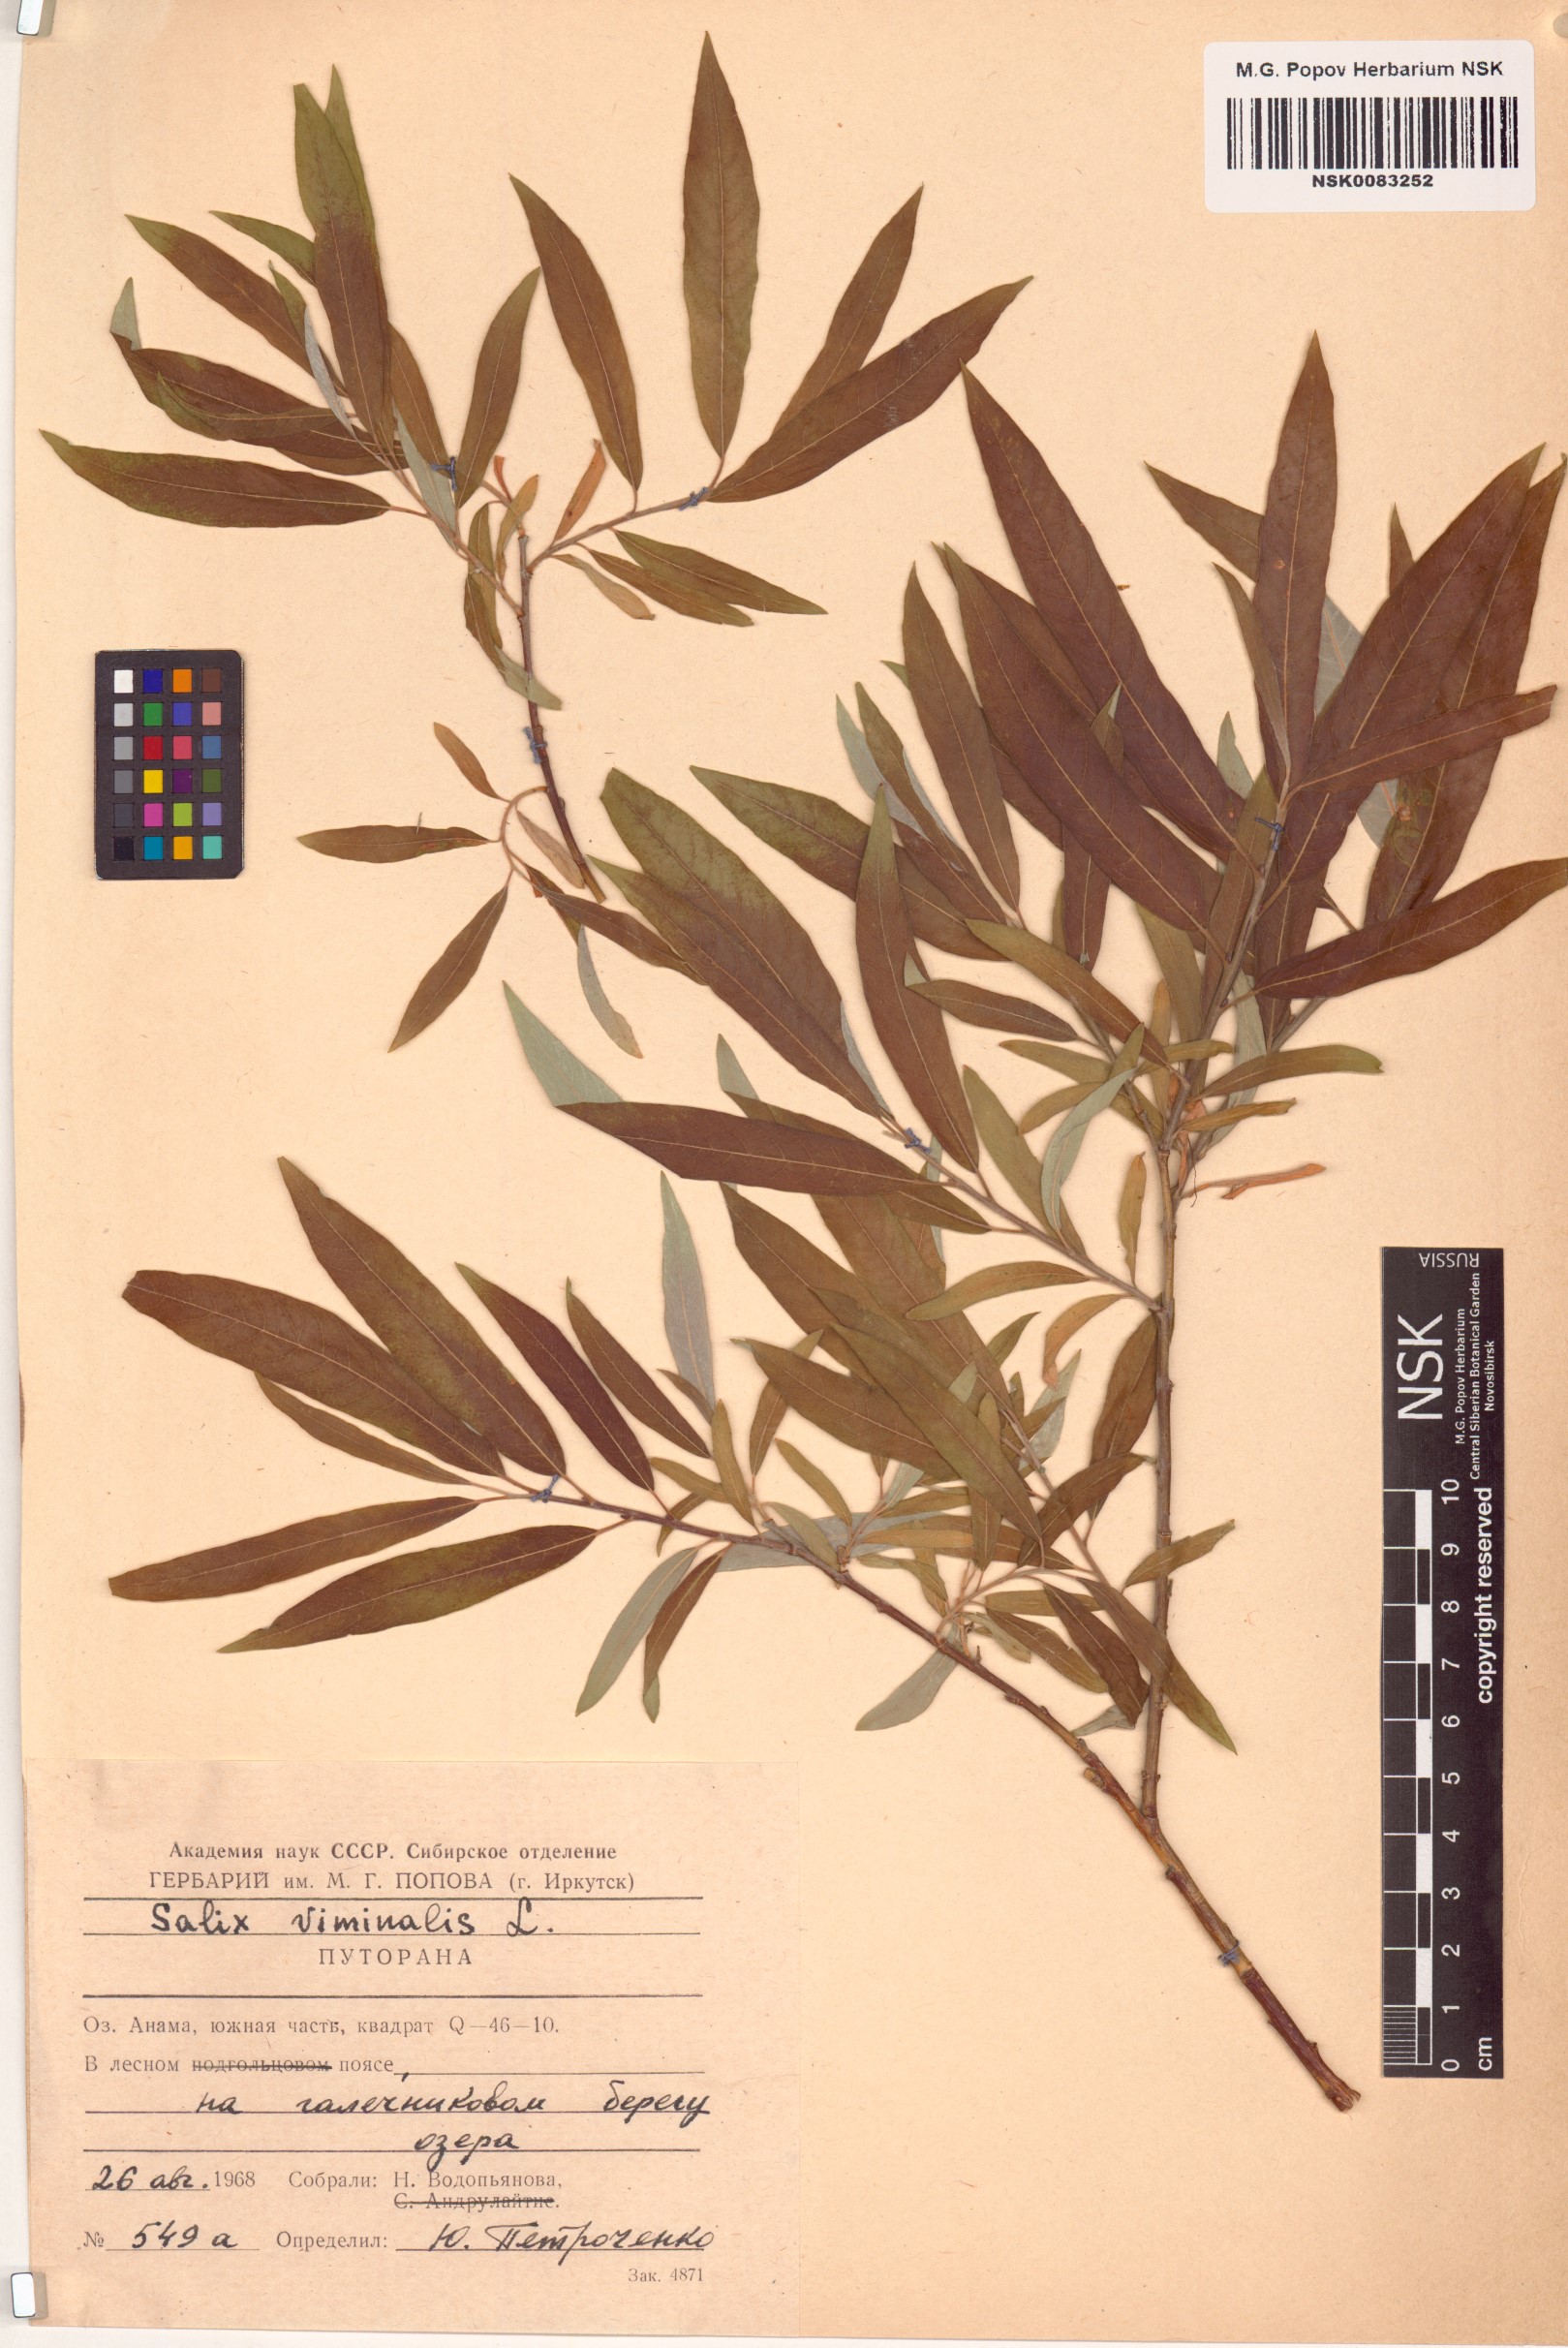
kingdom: Plantae
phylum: Tracheophyta
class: Magnoliopsida
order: Malpighiales
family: Salicaceae
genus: Salix
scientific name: Salix viminalis
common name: Osier
